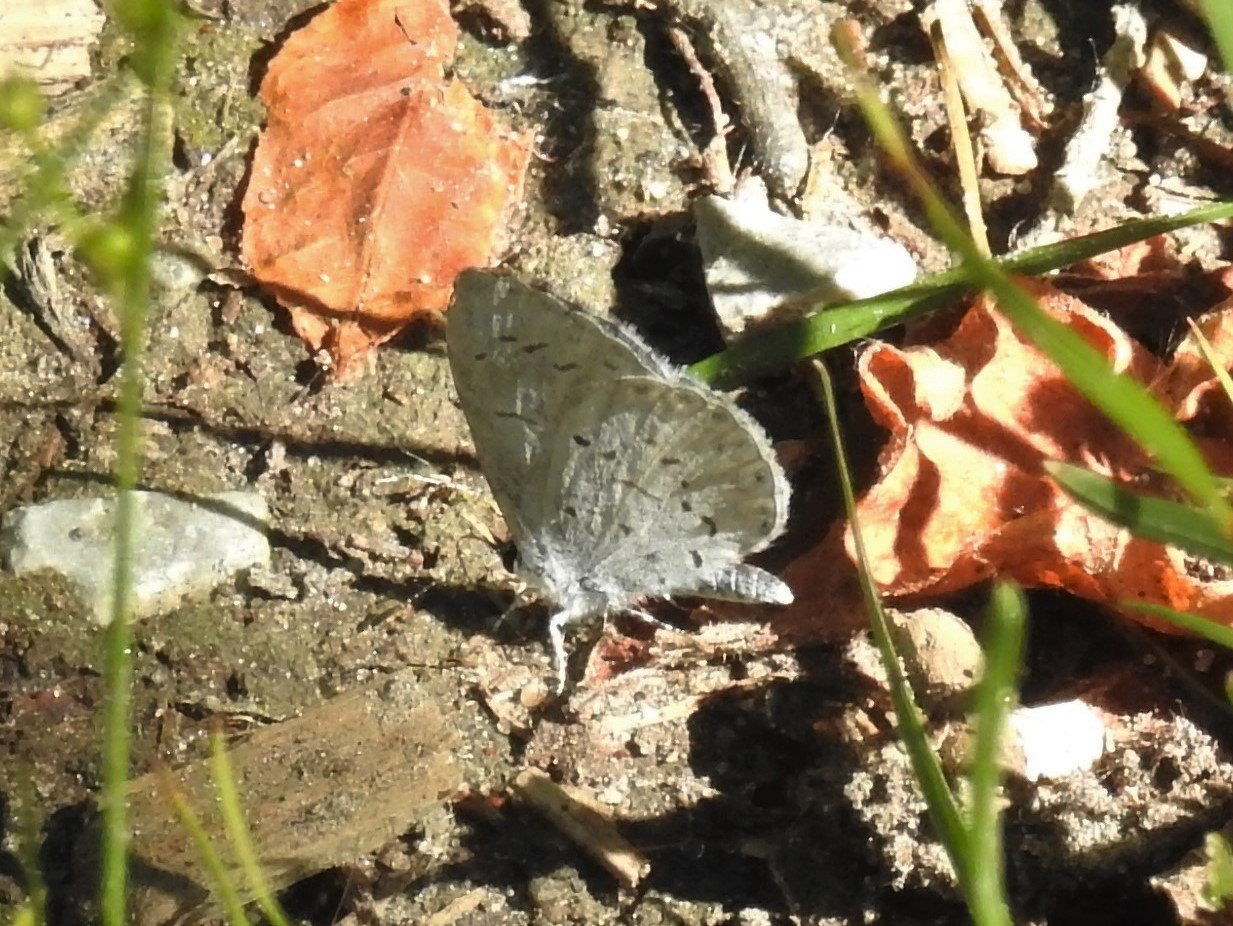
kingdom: Animalia
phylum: Arthropoda
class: Insecta
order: Lepidoptera
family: Lycaenidae
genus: Celastrina
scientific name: Celastrina
